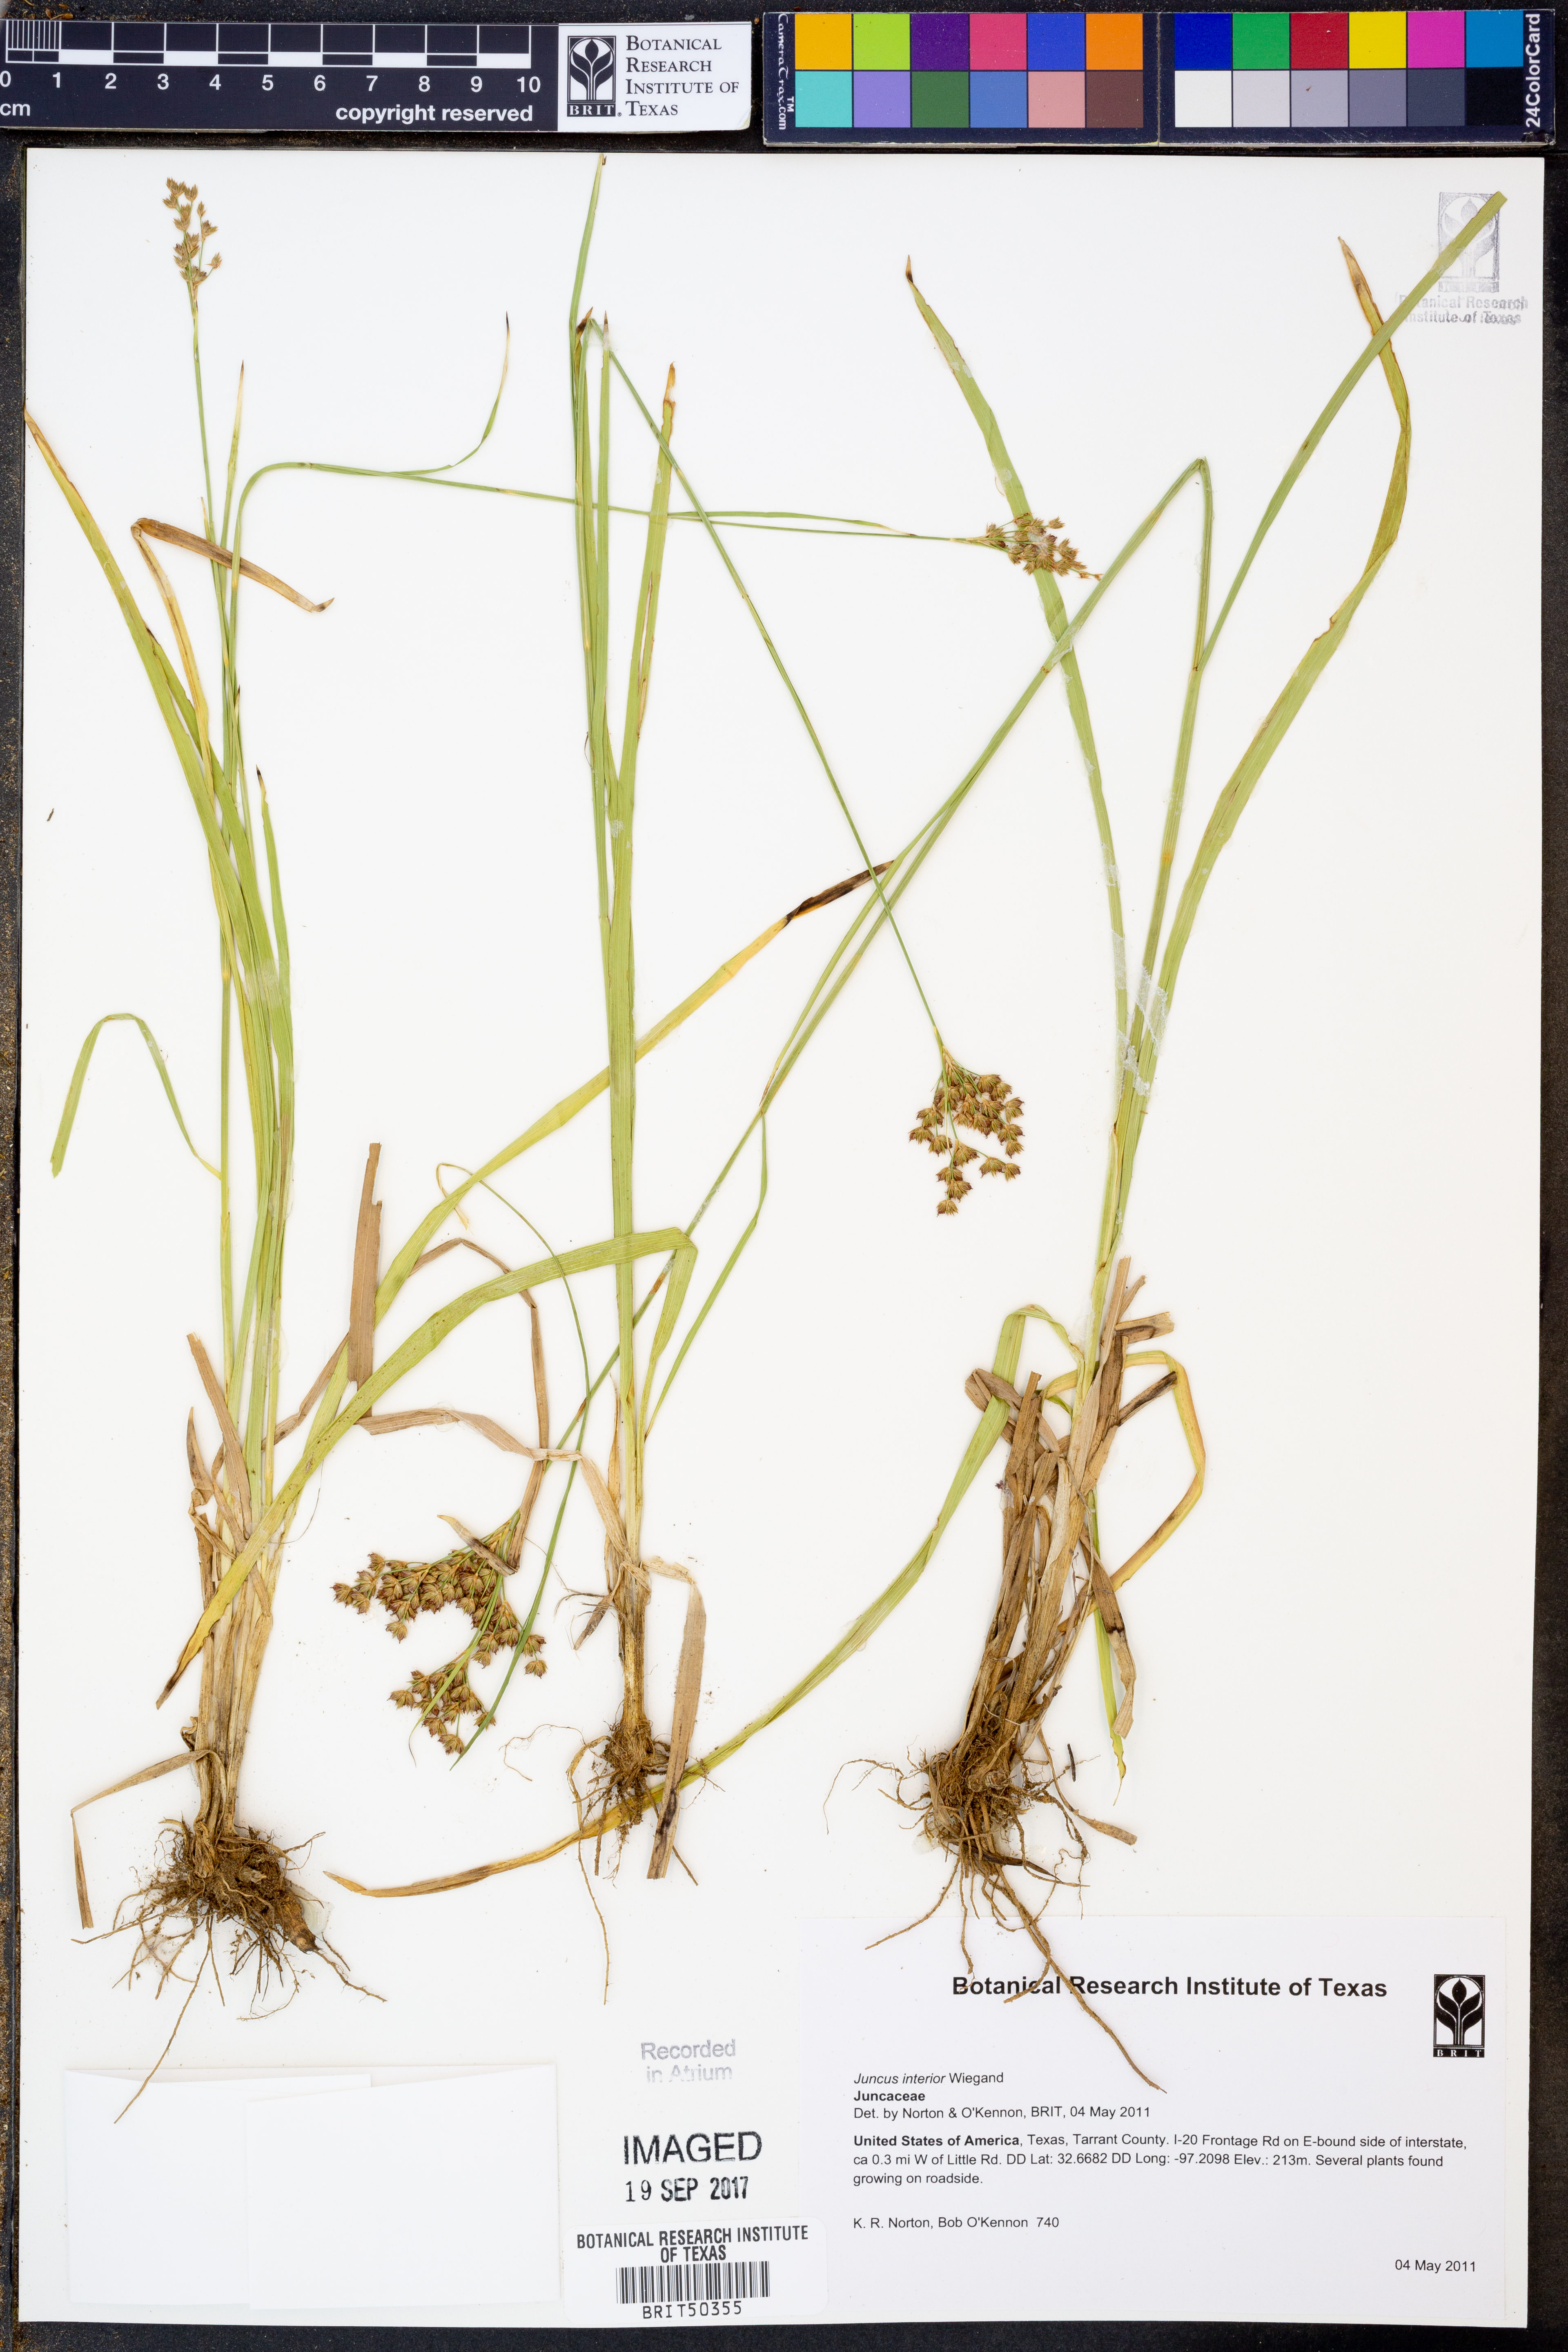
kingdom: Plantae
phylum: Tracheophyta
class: Liliopsida
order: Poales
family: Juncaceae
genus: Juncus
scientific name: Juncus interior
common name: Interior rush
